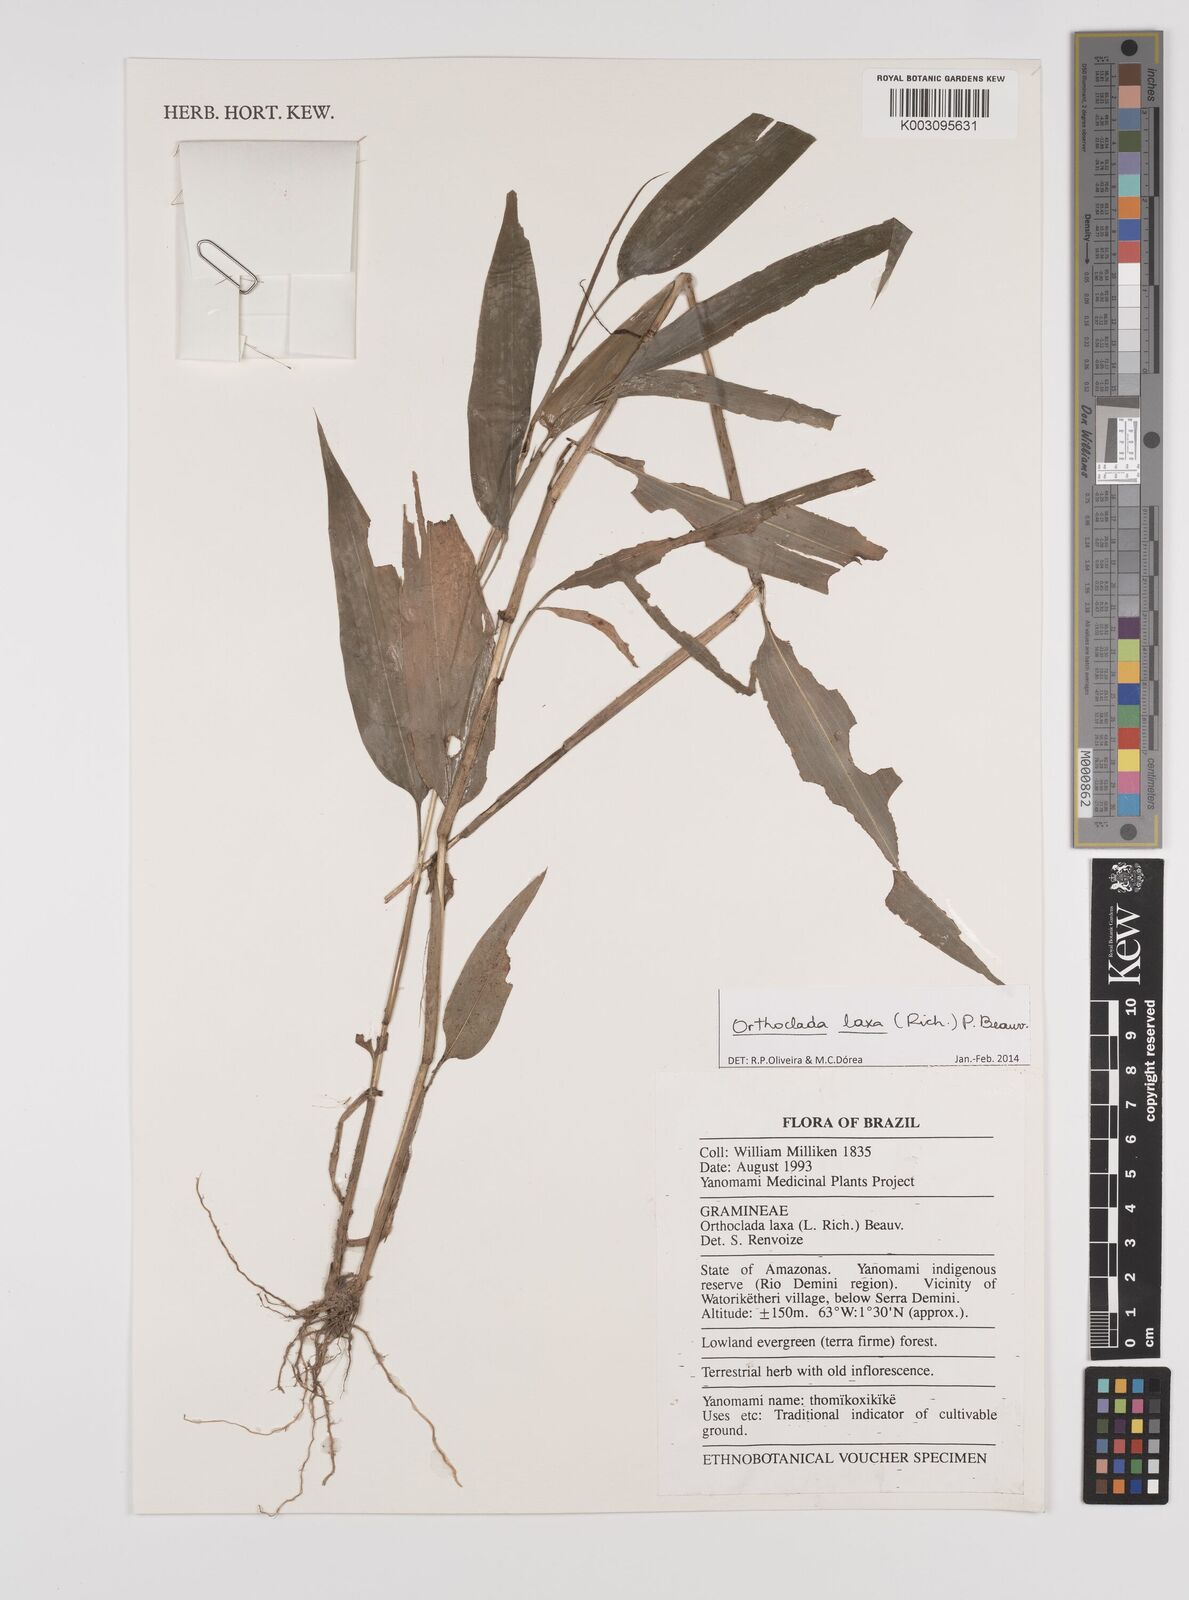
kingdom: Plantae
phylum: Tracheophyta
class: Liliopsida
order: Poales
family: Poaceae
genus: Orthoclada
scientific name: Orthoclada laxa
